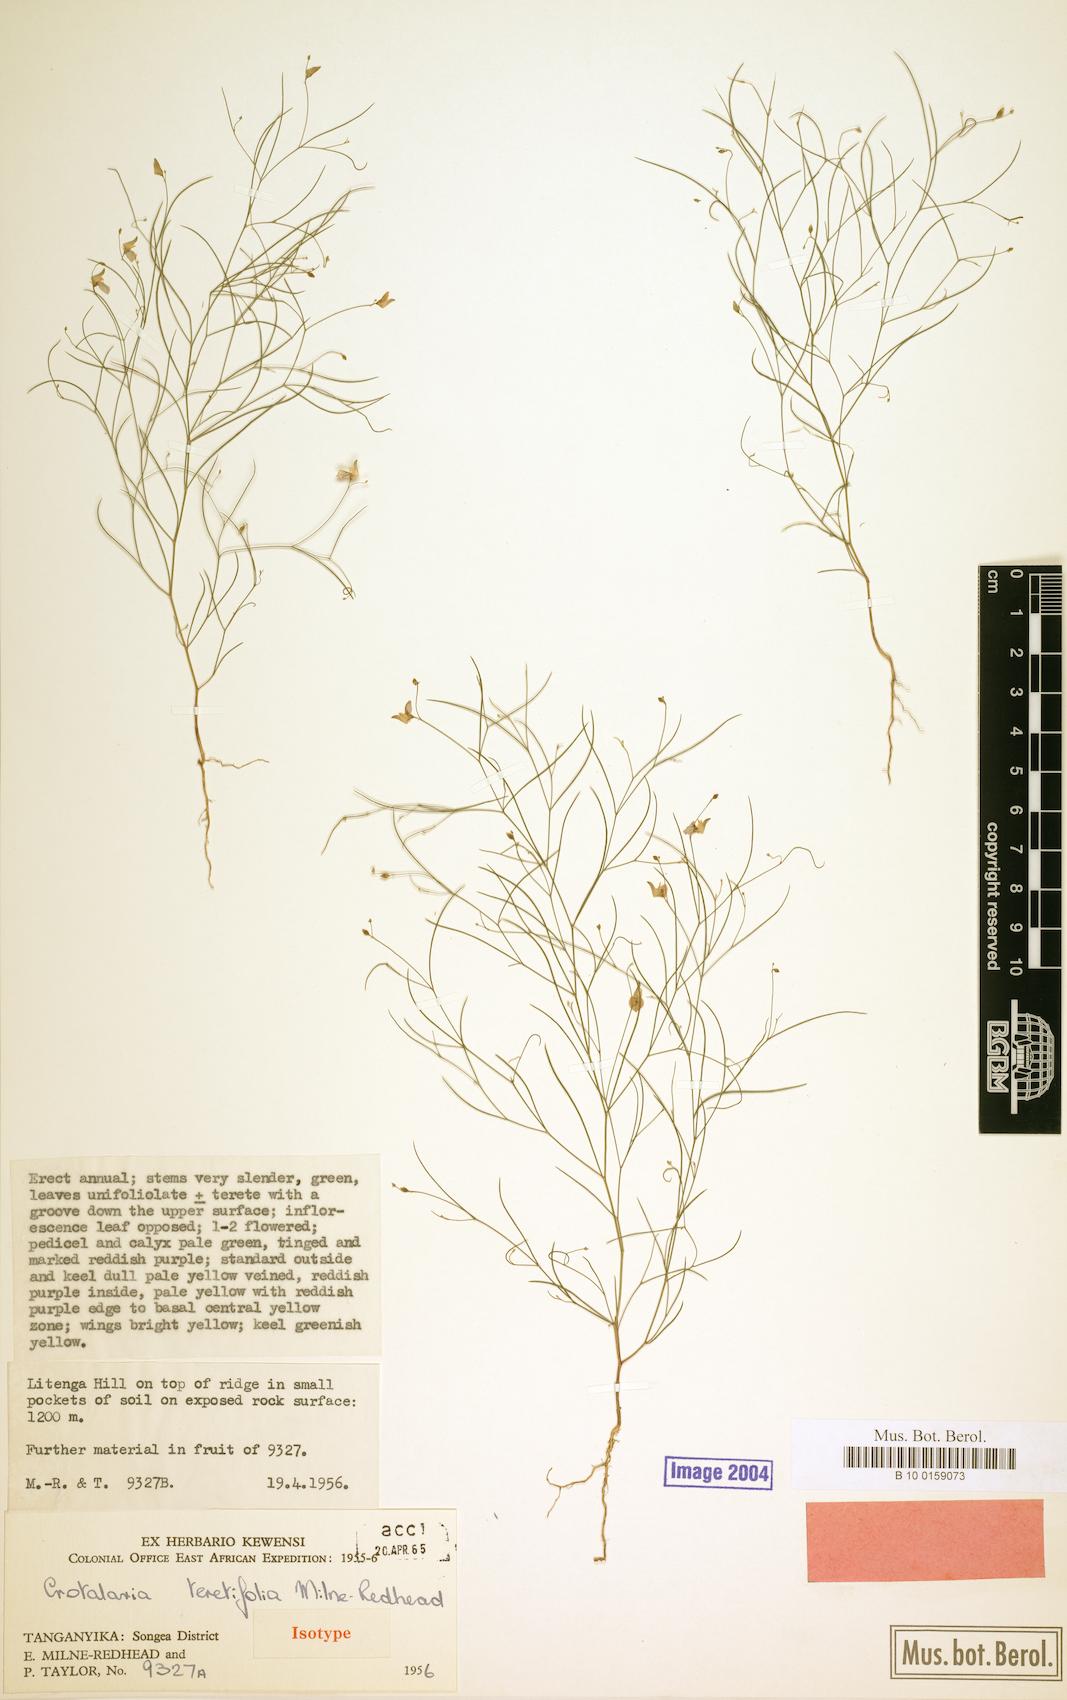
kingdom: Plantae
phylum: Tracheophyta
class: Magnoliopsida
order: Fabales
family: Fabaceae
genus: Crotalaria
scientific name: Crotalaria teretifolia
